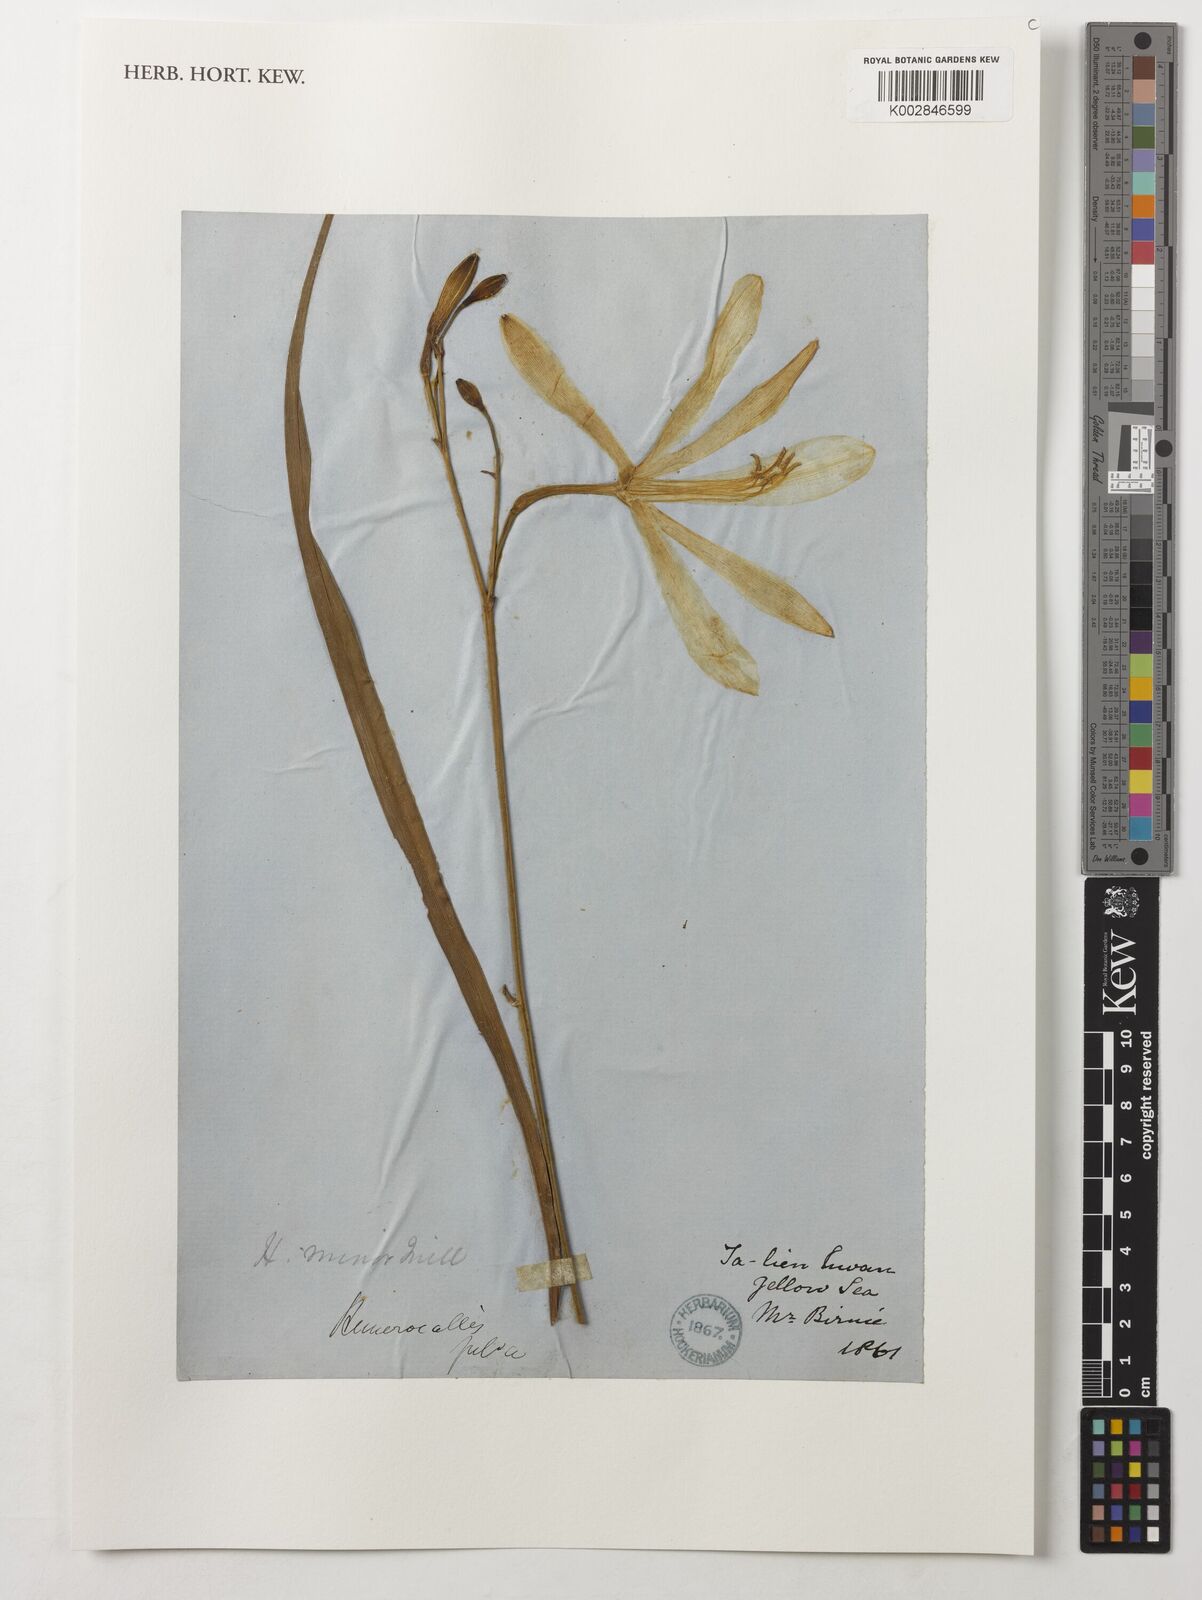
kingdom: Plantae
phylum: Tracheophyta
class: Liliopsida
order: Asparagales
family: Asphodelaceae
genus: Hemerocallis
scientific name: Hemerocallis minor
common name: Small daylily
